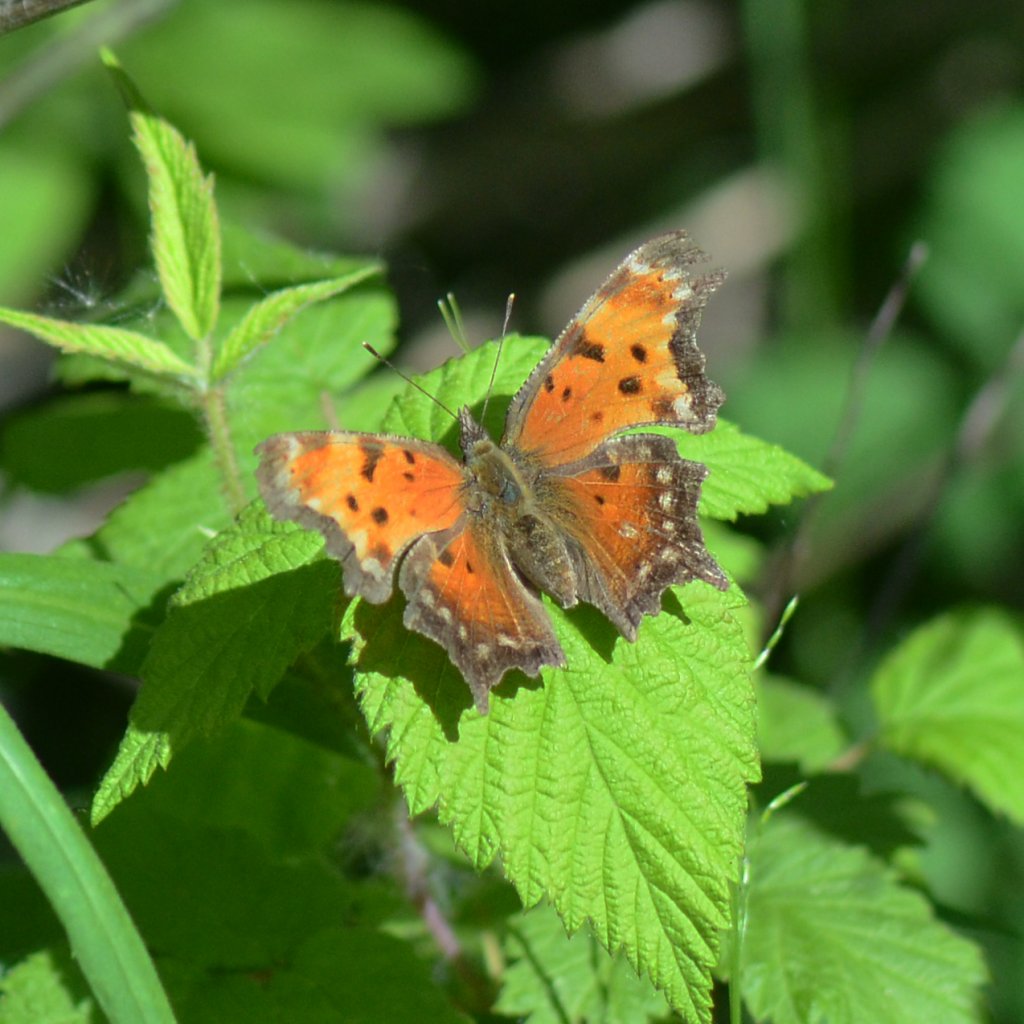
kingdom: Animalia
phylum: Arthropoda
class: Insecta
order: Lepidoptera
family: Nymphalidae
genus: Polygonia
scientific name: Polygonia progne
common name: Gray Comma
